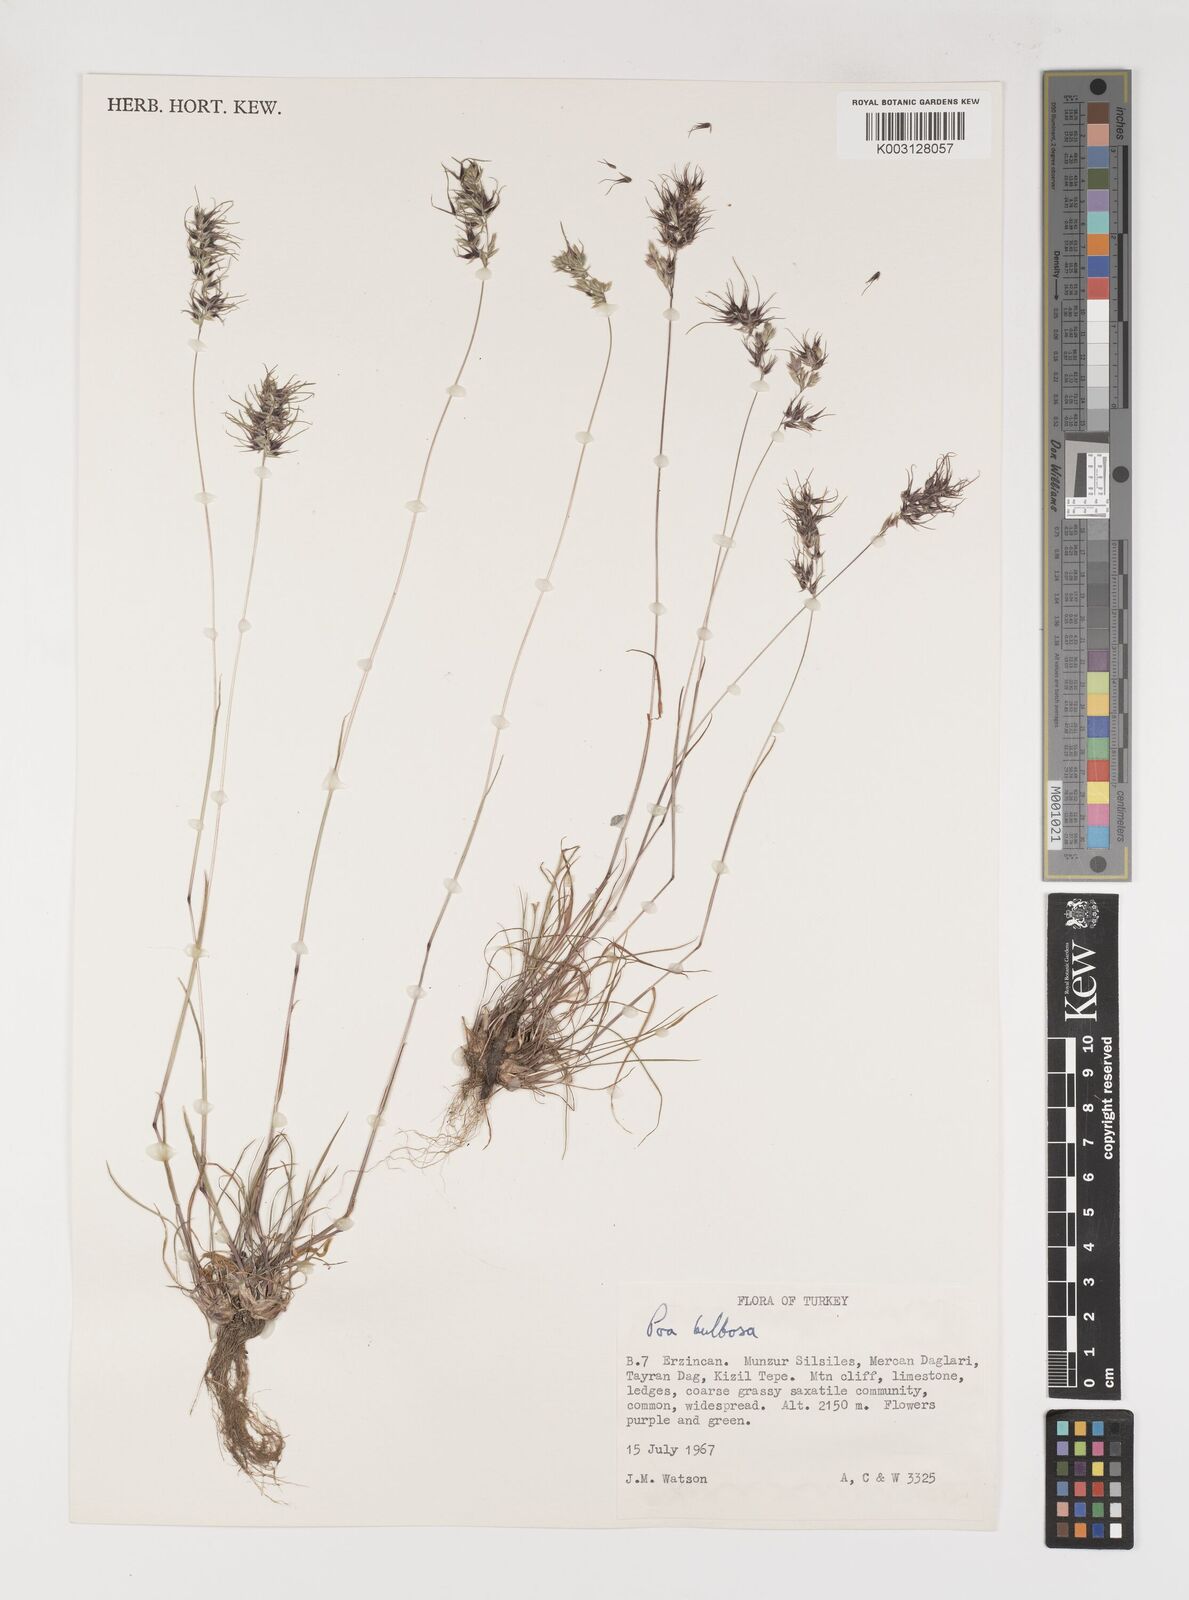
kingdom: Plantae
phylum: Tracheophyta
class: Liliopsida
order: Poales
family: Poaceae
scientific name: Poaceae
